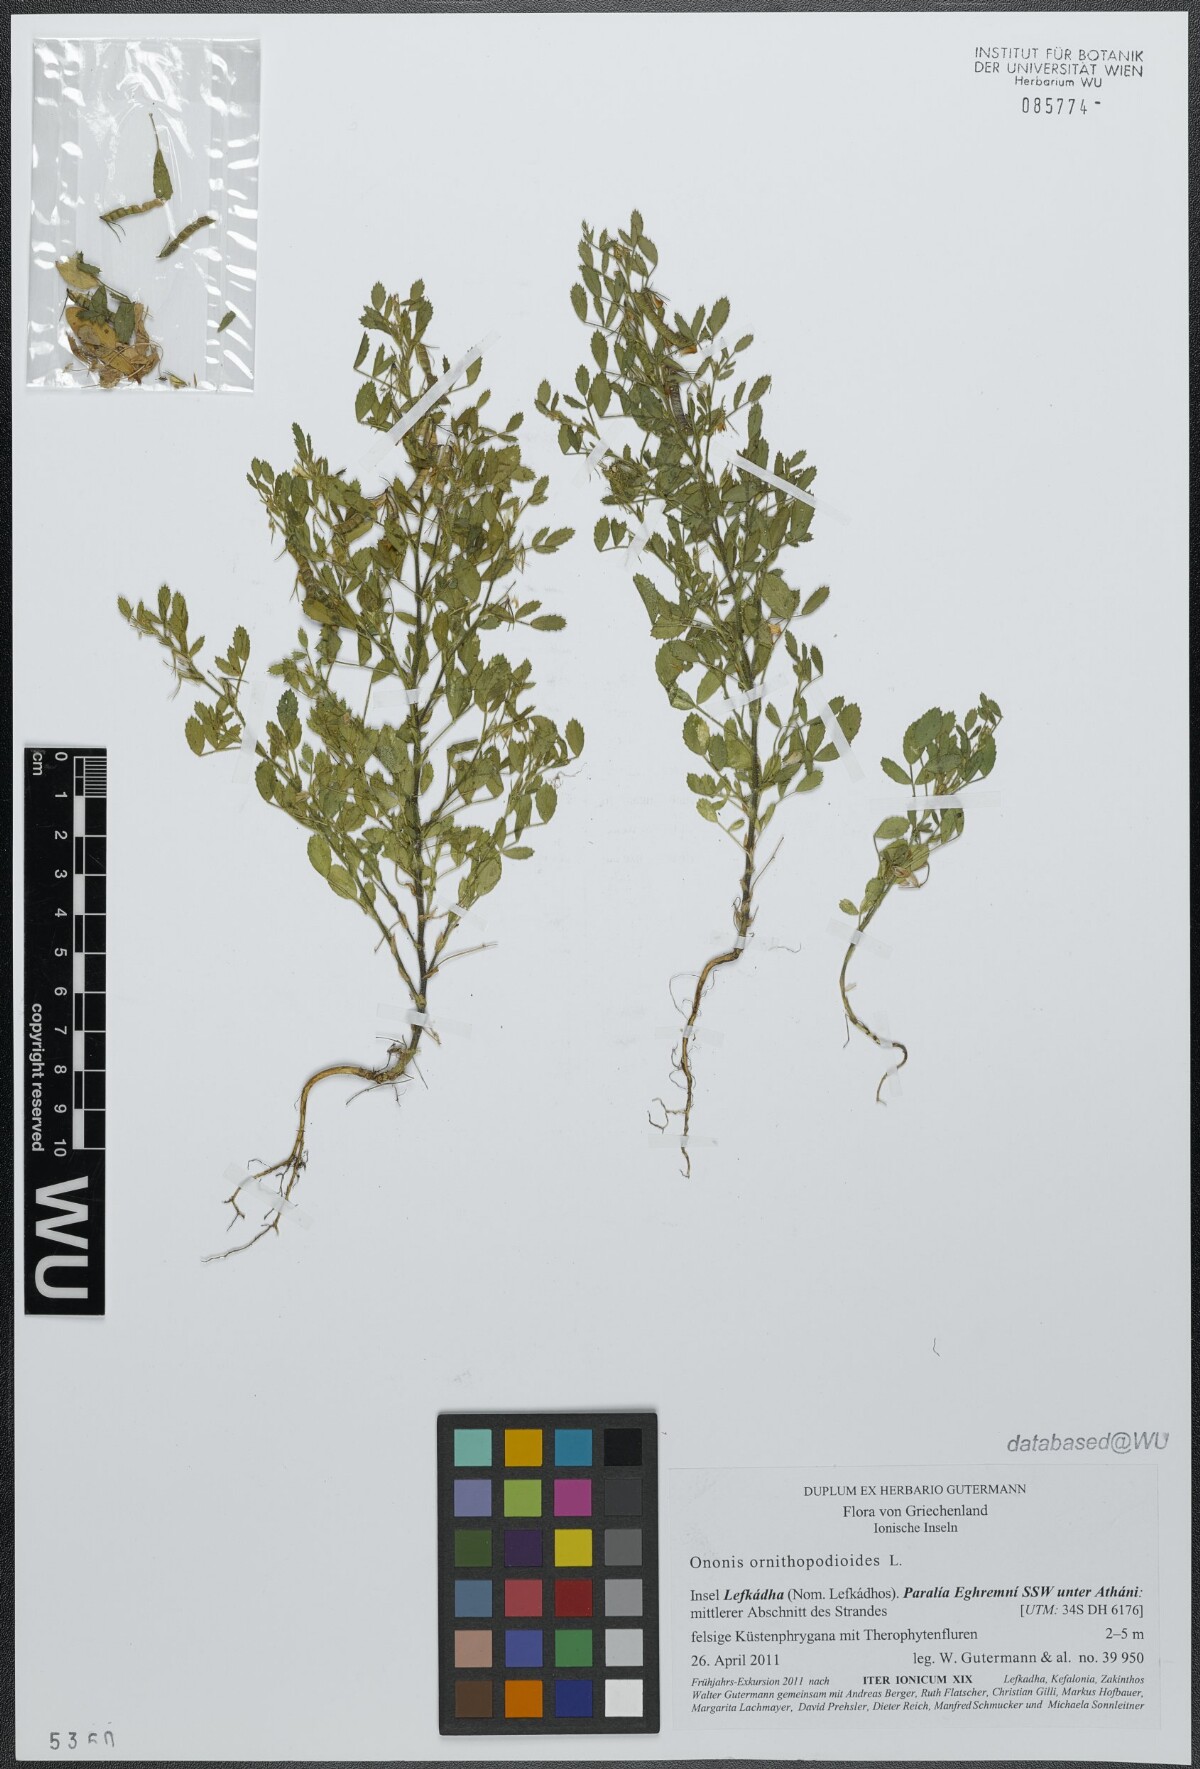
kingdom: Plantae
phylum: Tracheophyta
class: Magnoliopsida
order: Fabales
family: Fabaceae
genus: Ononis
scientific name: Ononis ornithopodioides
